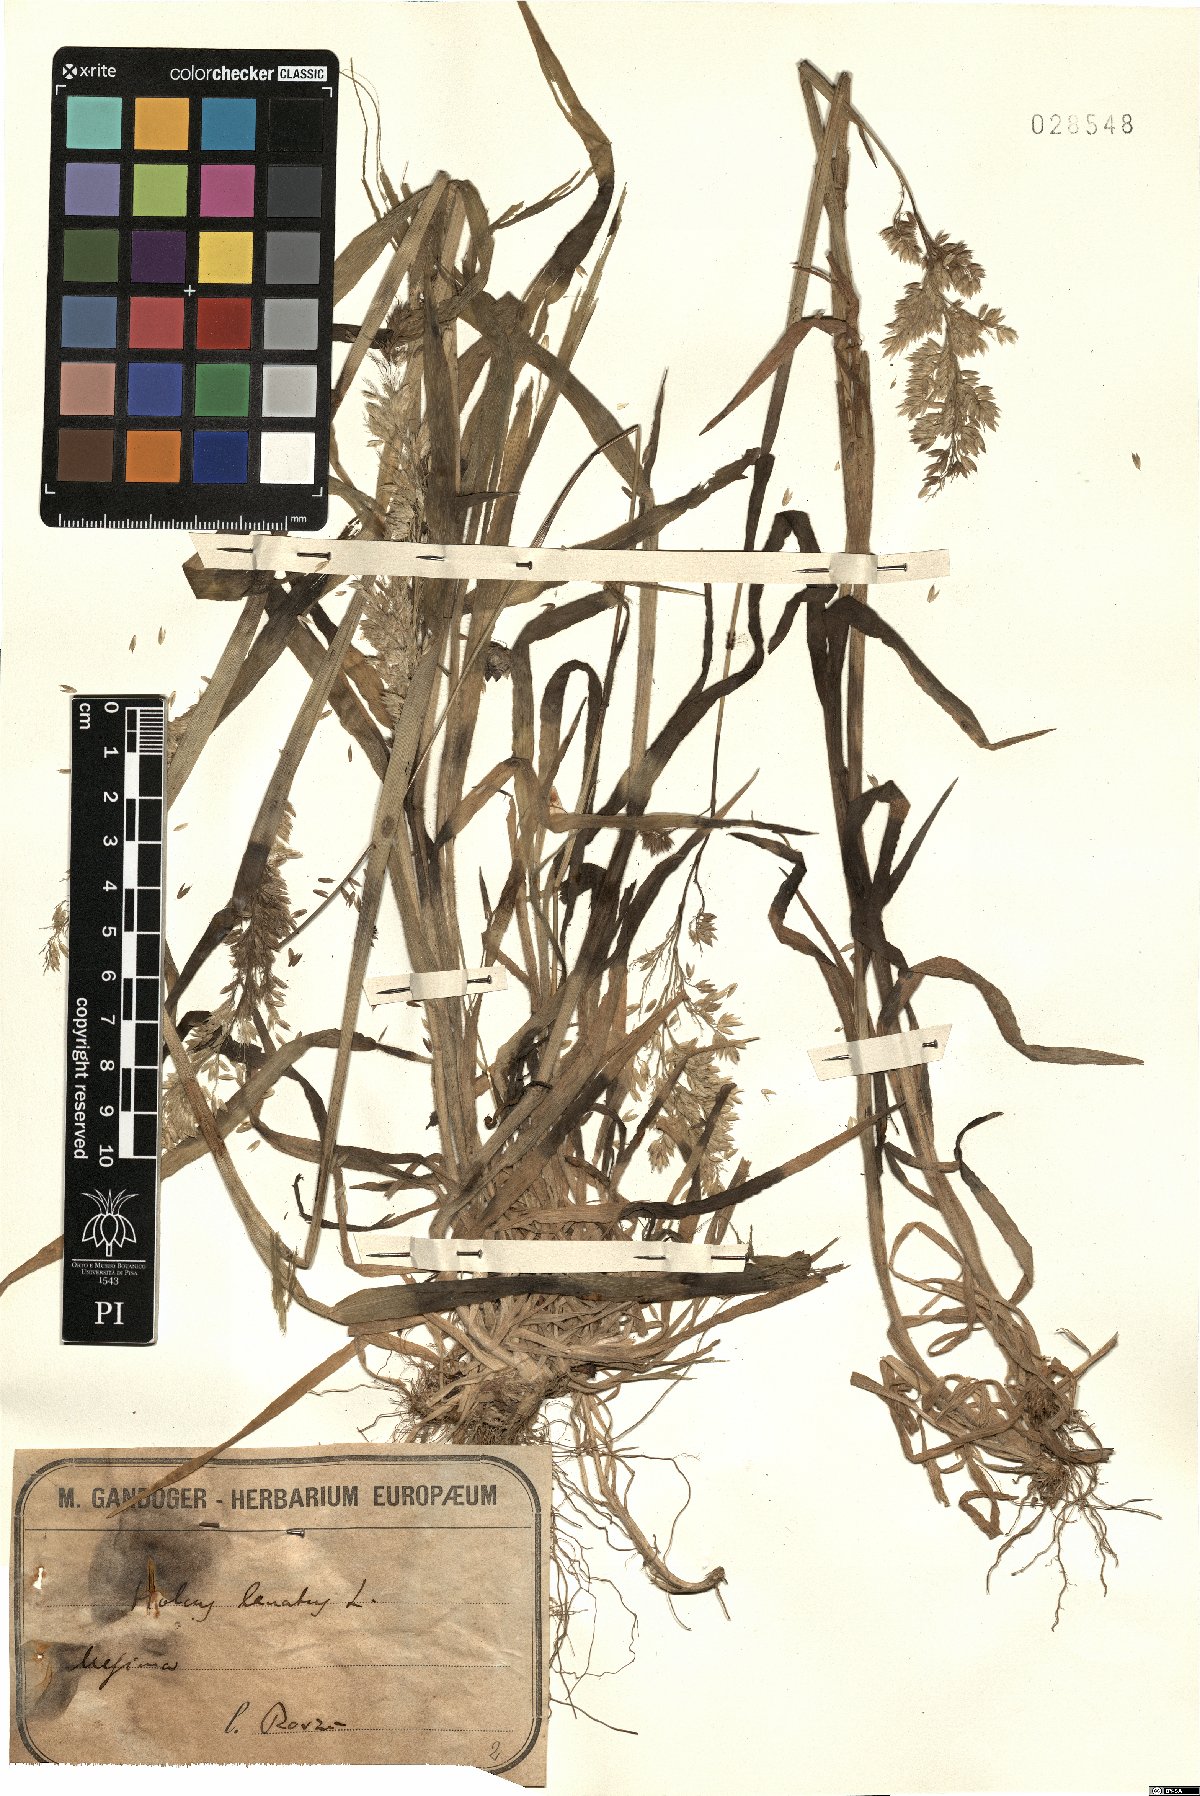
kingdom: Plantae
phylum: Tracheophyta
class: Liliopsida
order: Poales
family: Poaceae
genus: Holcus
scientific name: Holcus lanatus
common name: Yorkshire-fog
